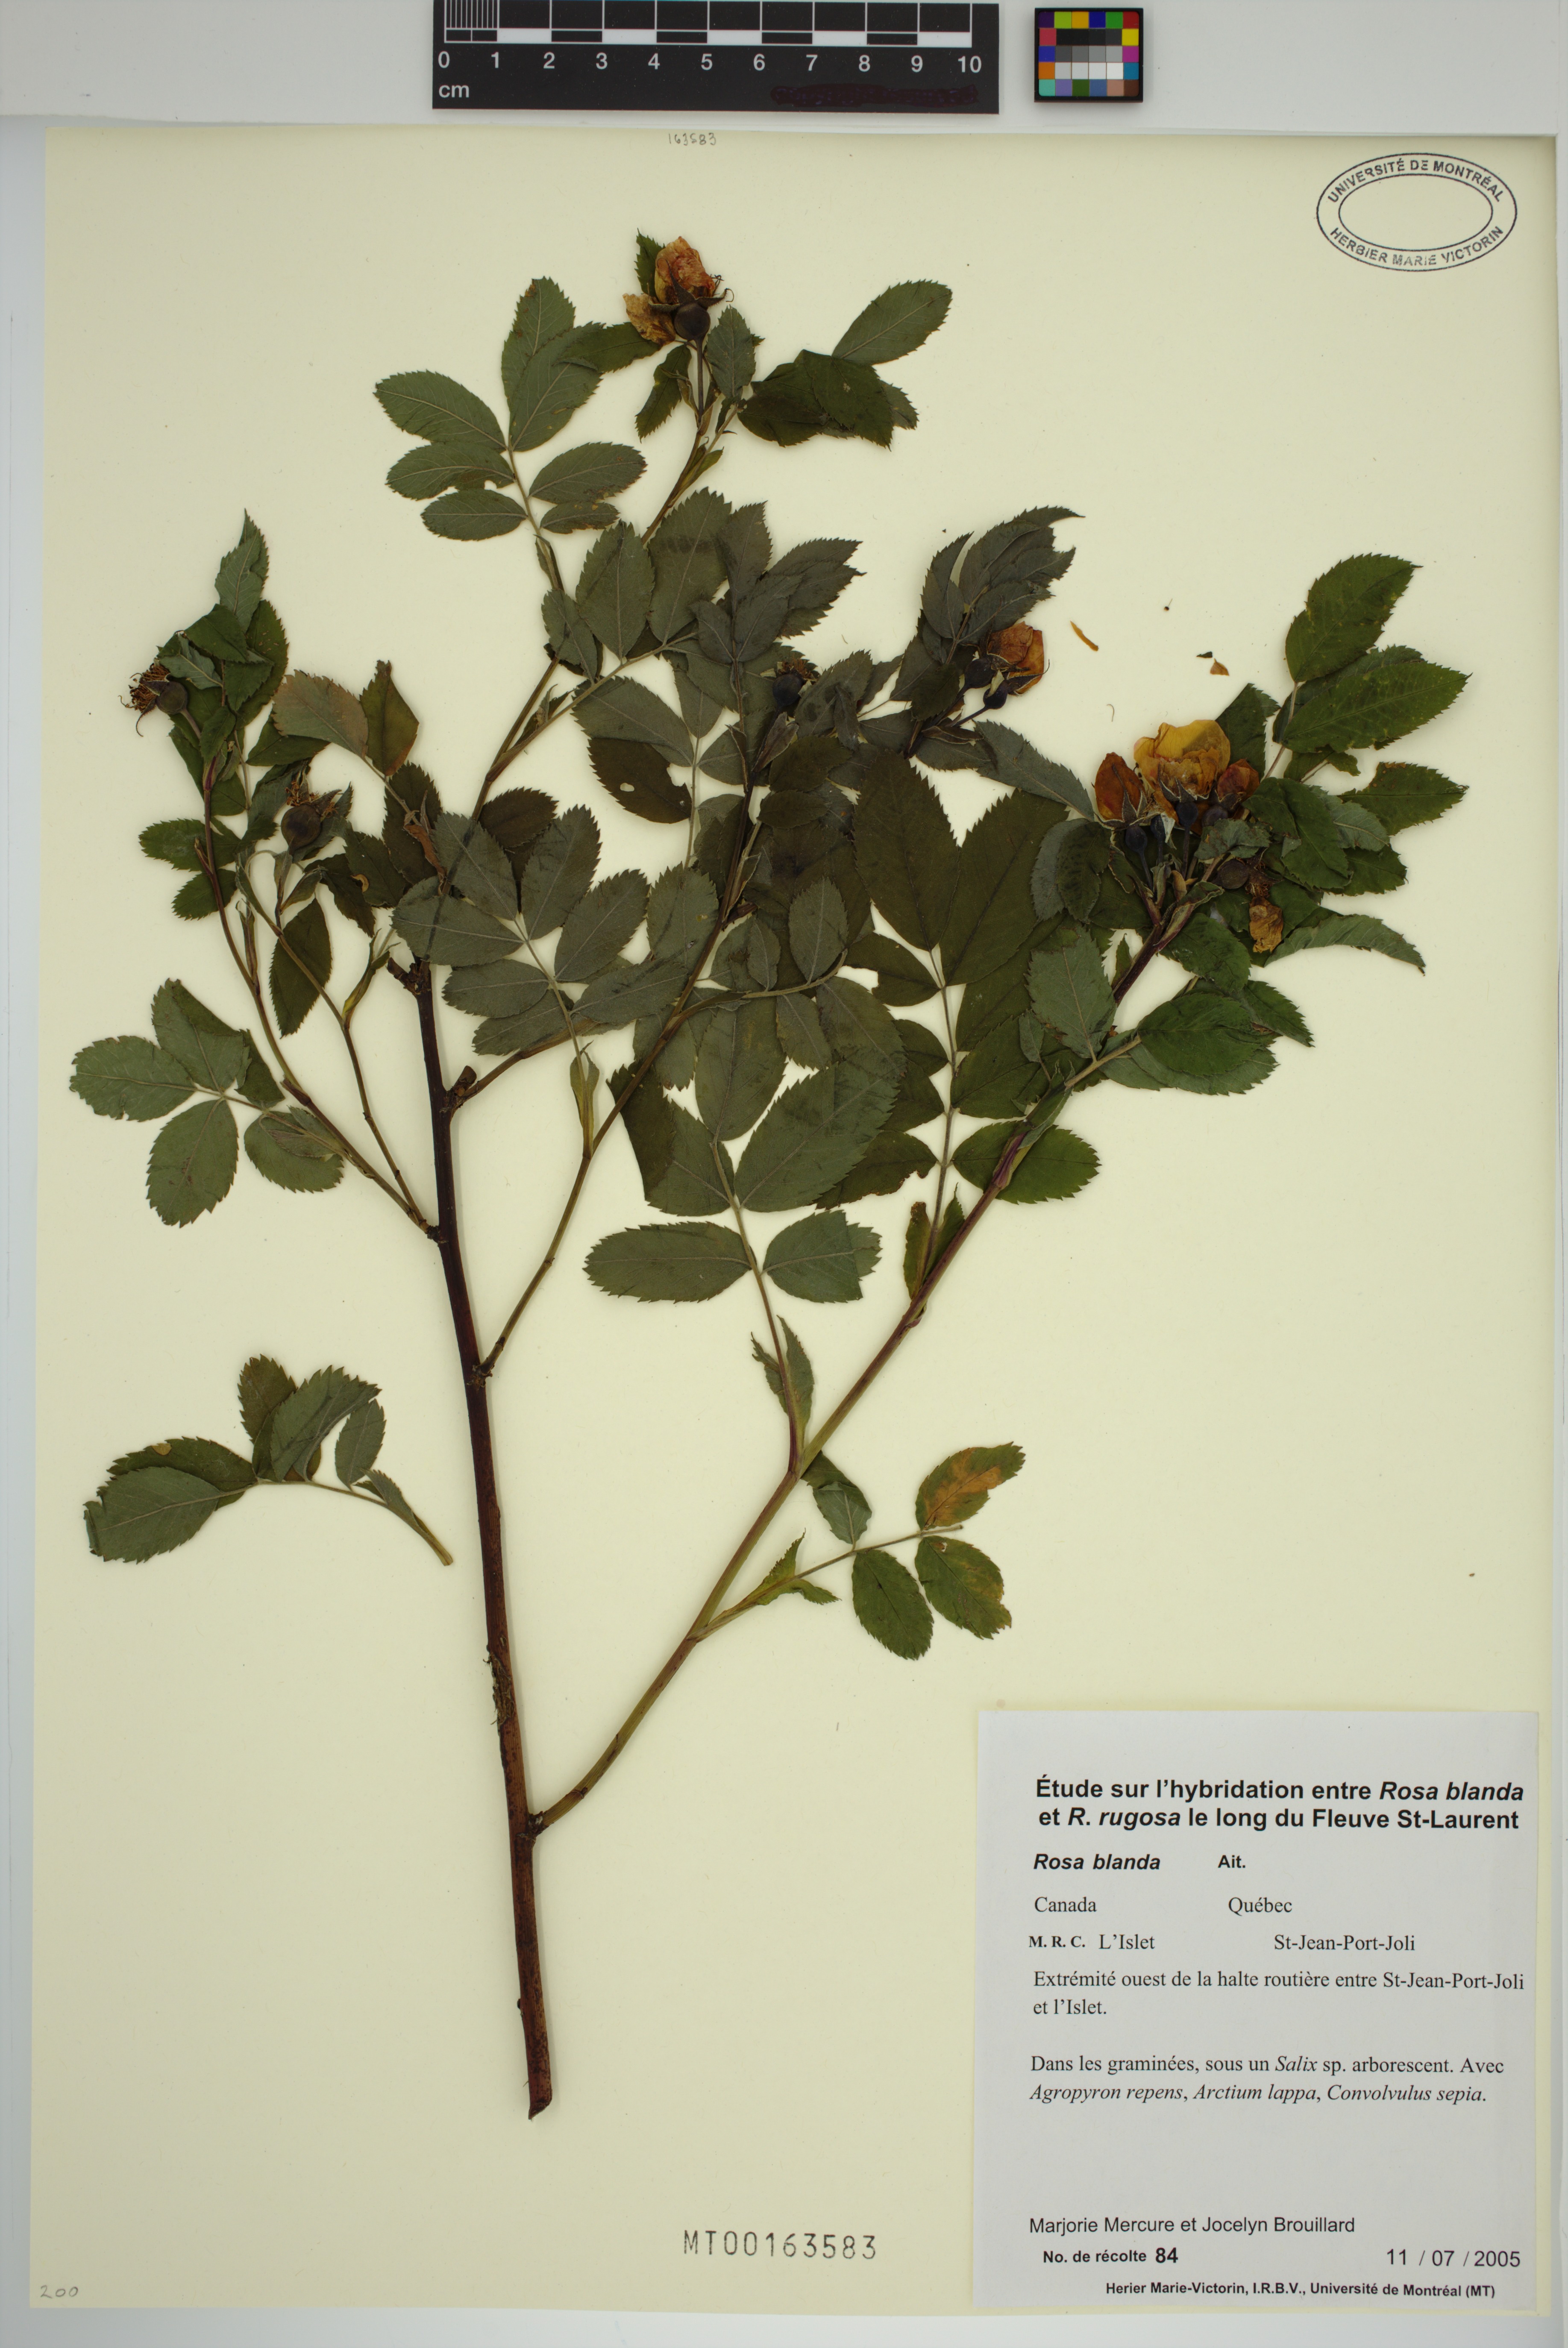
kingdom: Plantae
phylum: Tracheophyta
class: Magnoliopsida
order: Rosales
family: Rosaceae
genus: Rosa
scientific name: Rosa blanda
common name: Smooth rose
